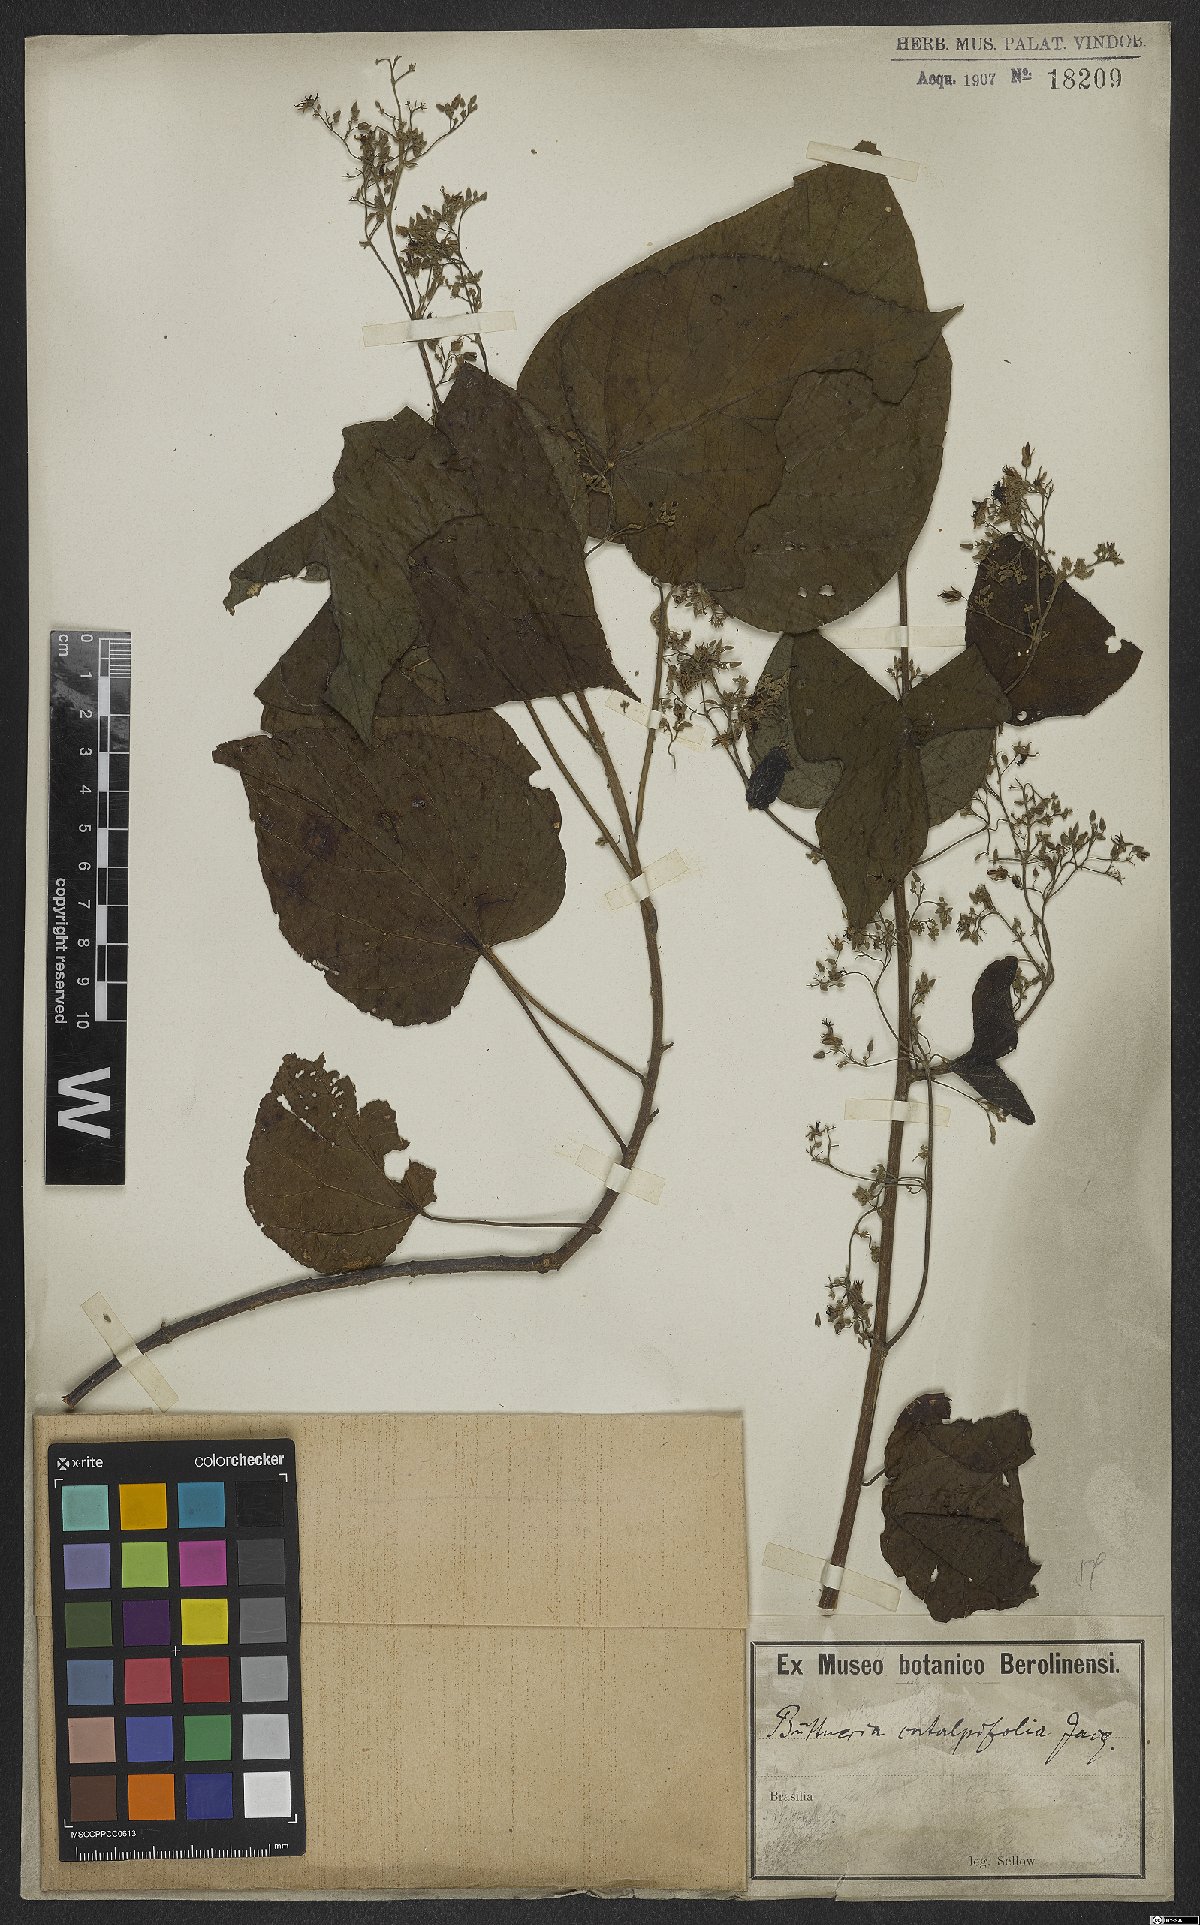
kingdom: Plantae
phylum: Tracheophyta
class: Magnoliopsida
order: Malvales
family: Malvaceae
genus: Byttneria
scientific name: Byttneria catalpifolia
